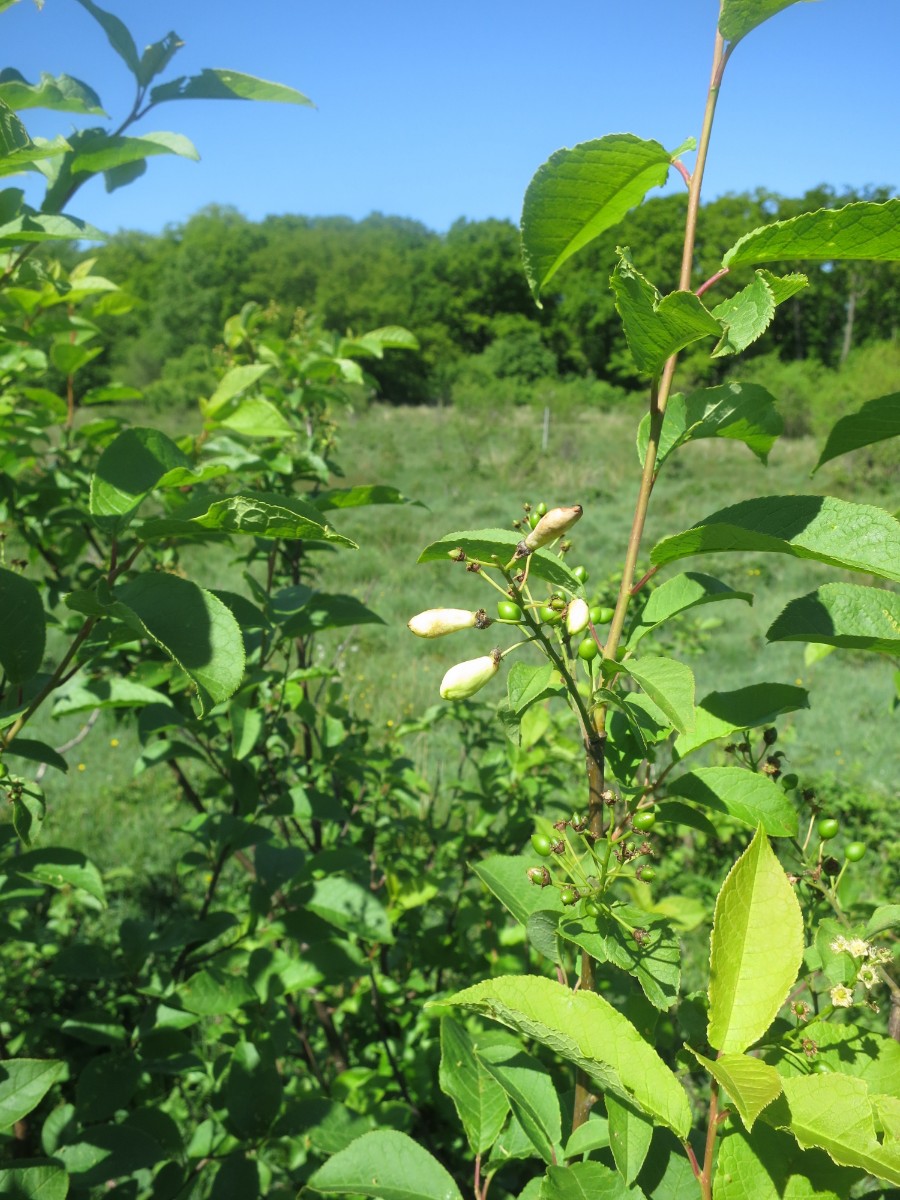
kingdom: Fungi
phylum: Ascomycota
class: Taphrinomycetes
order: Taphrinales
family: Taphrinaceae
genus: Taphrina
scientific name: Taphrina padi
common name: Bird cherry pocket
